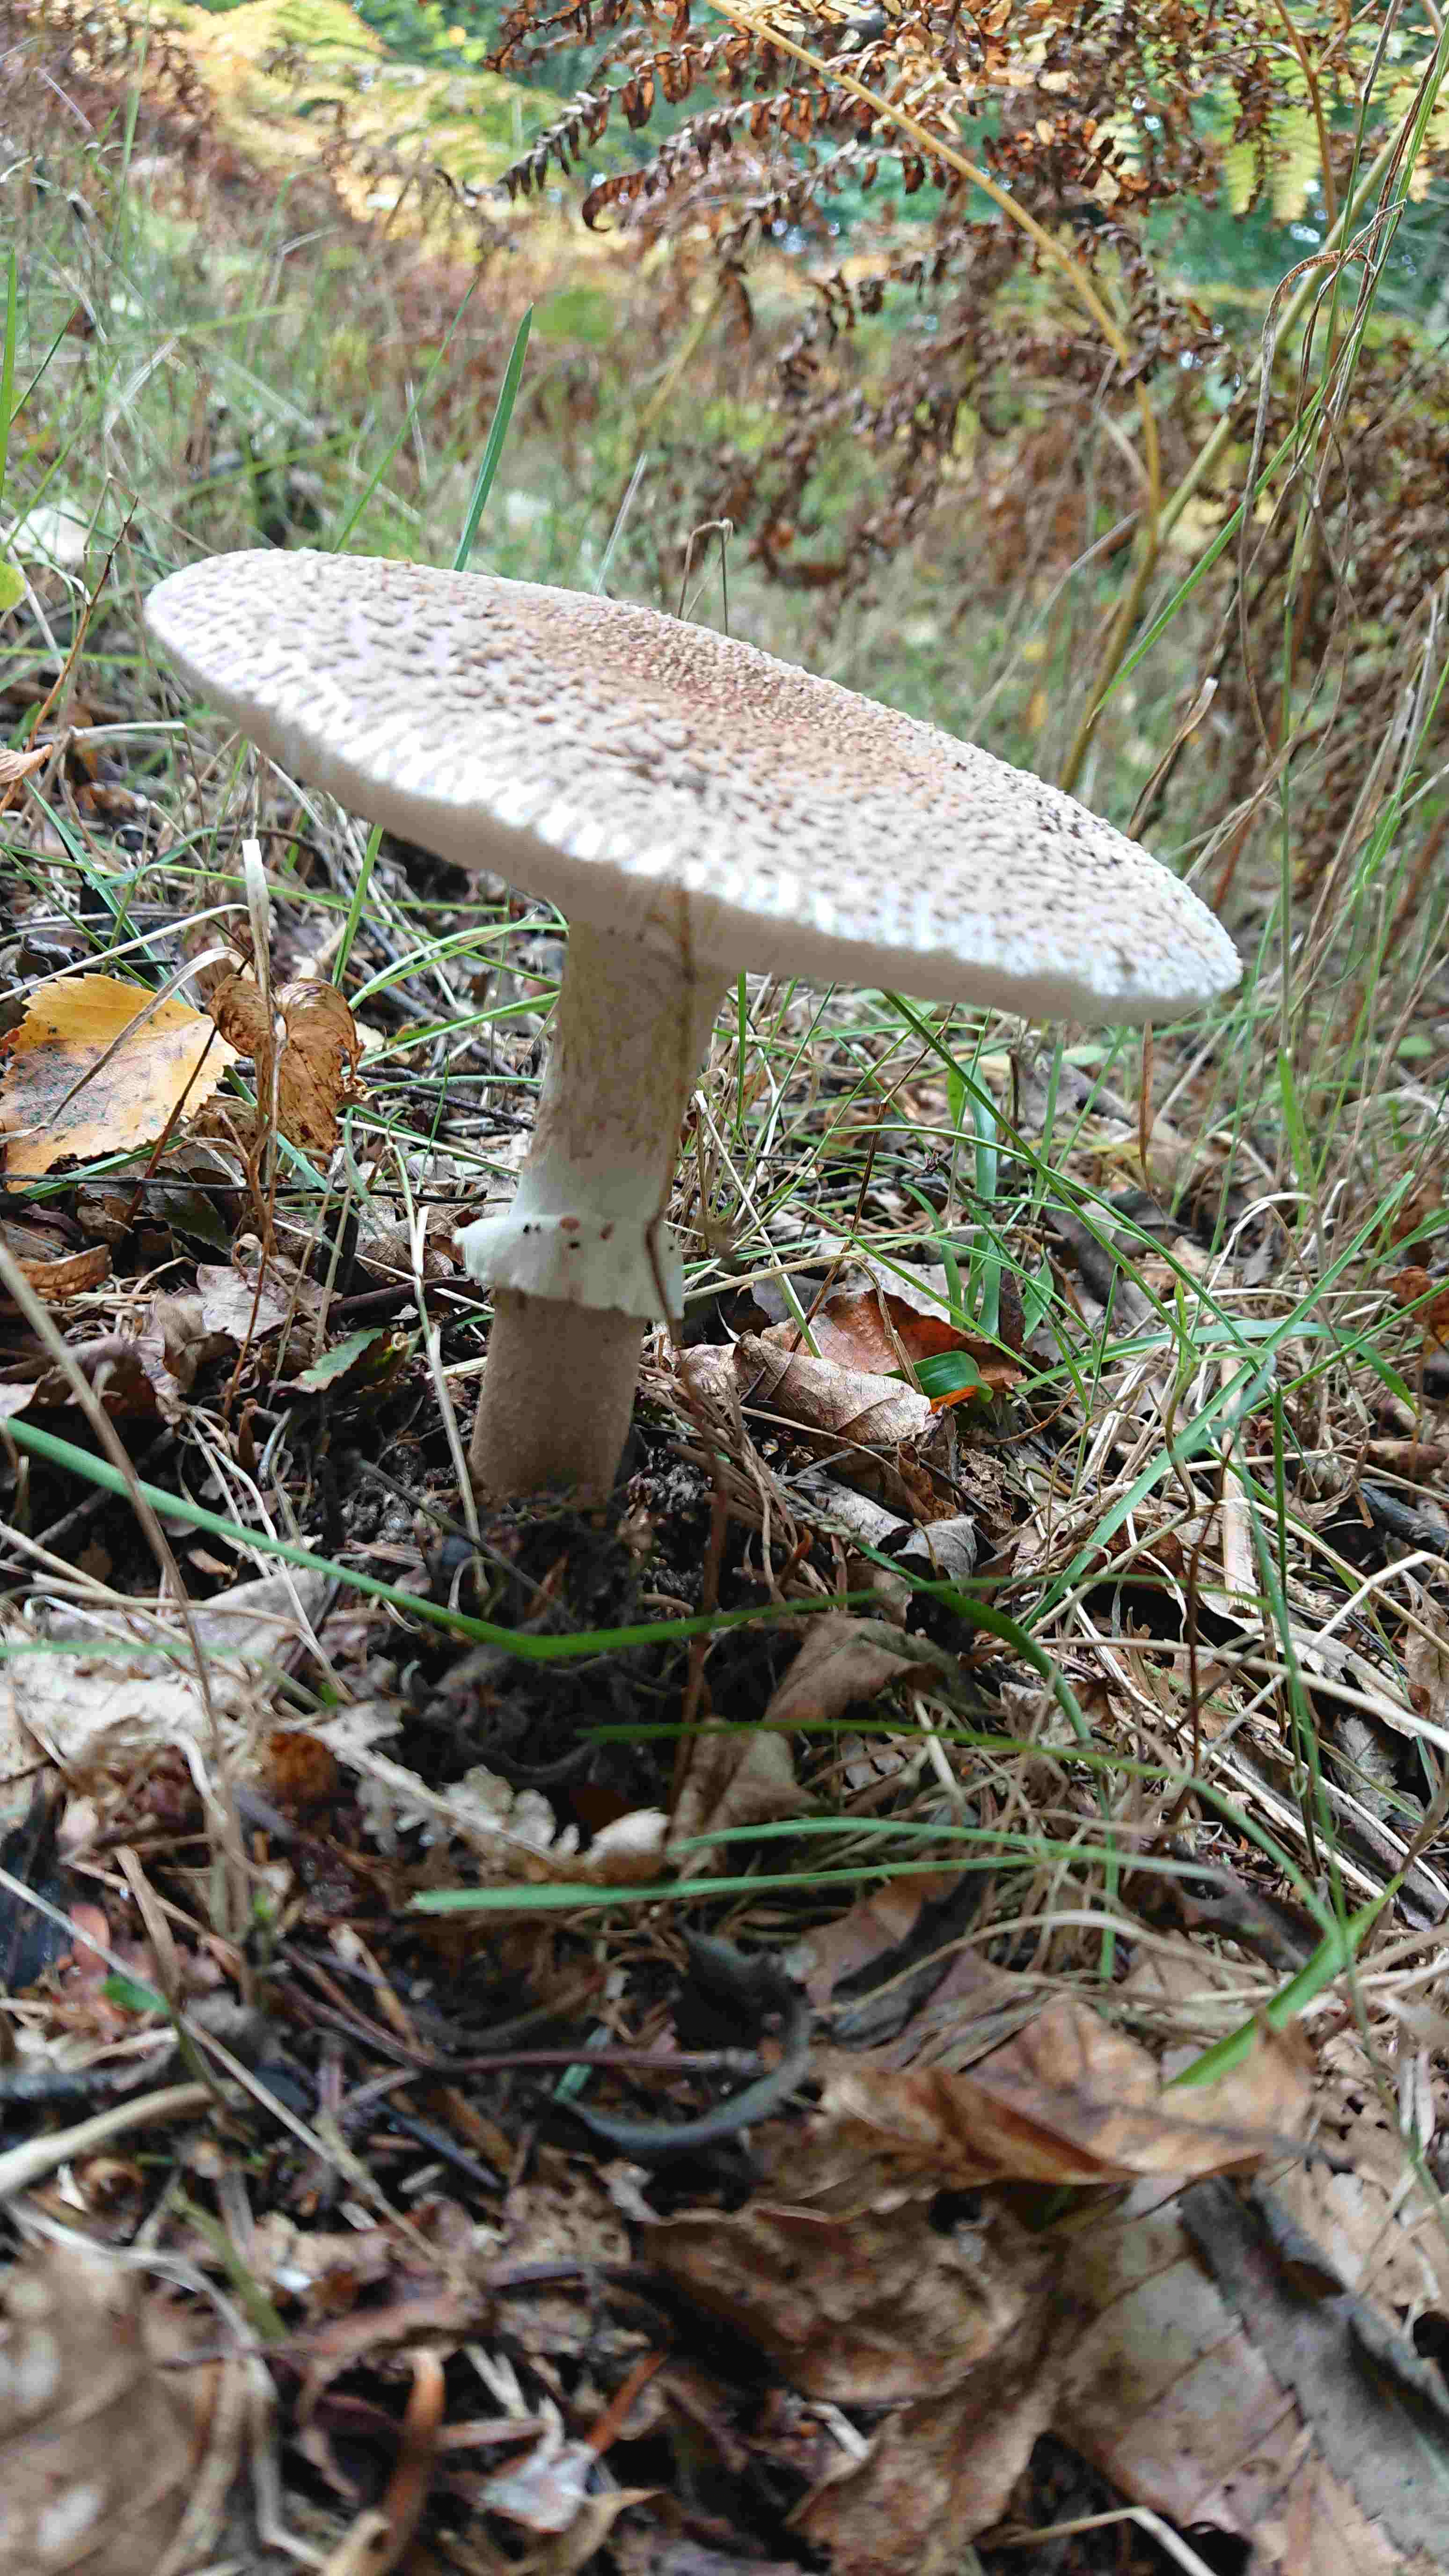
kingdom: Fungi
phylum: Basidiomycota
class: Agaricomycetes
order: Agaricales
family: Amanitaceae
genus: Amanita
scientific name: Amanita rubescens
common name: rødmende fluesvamp
